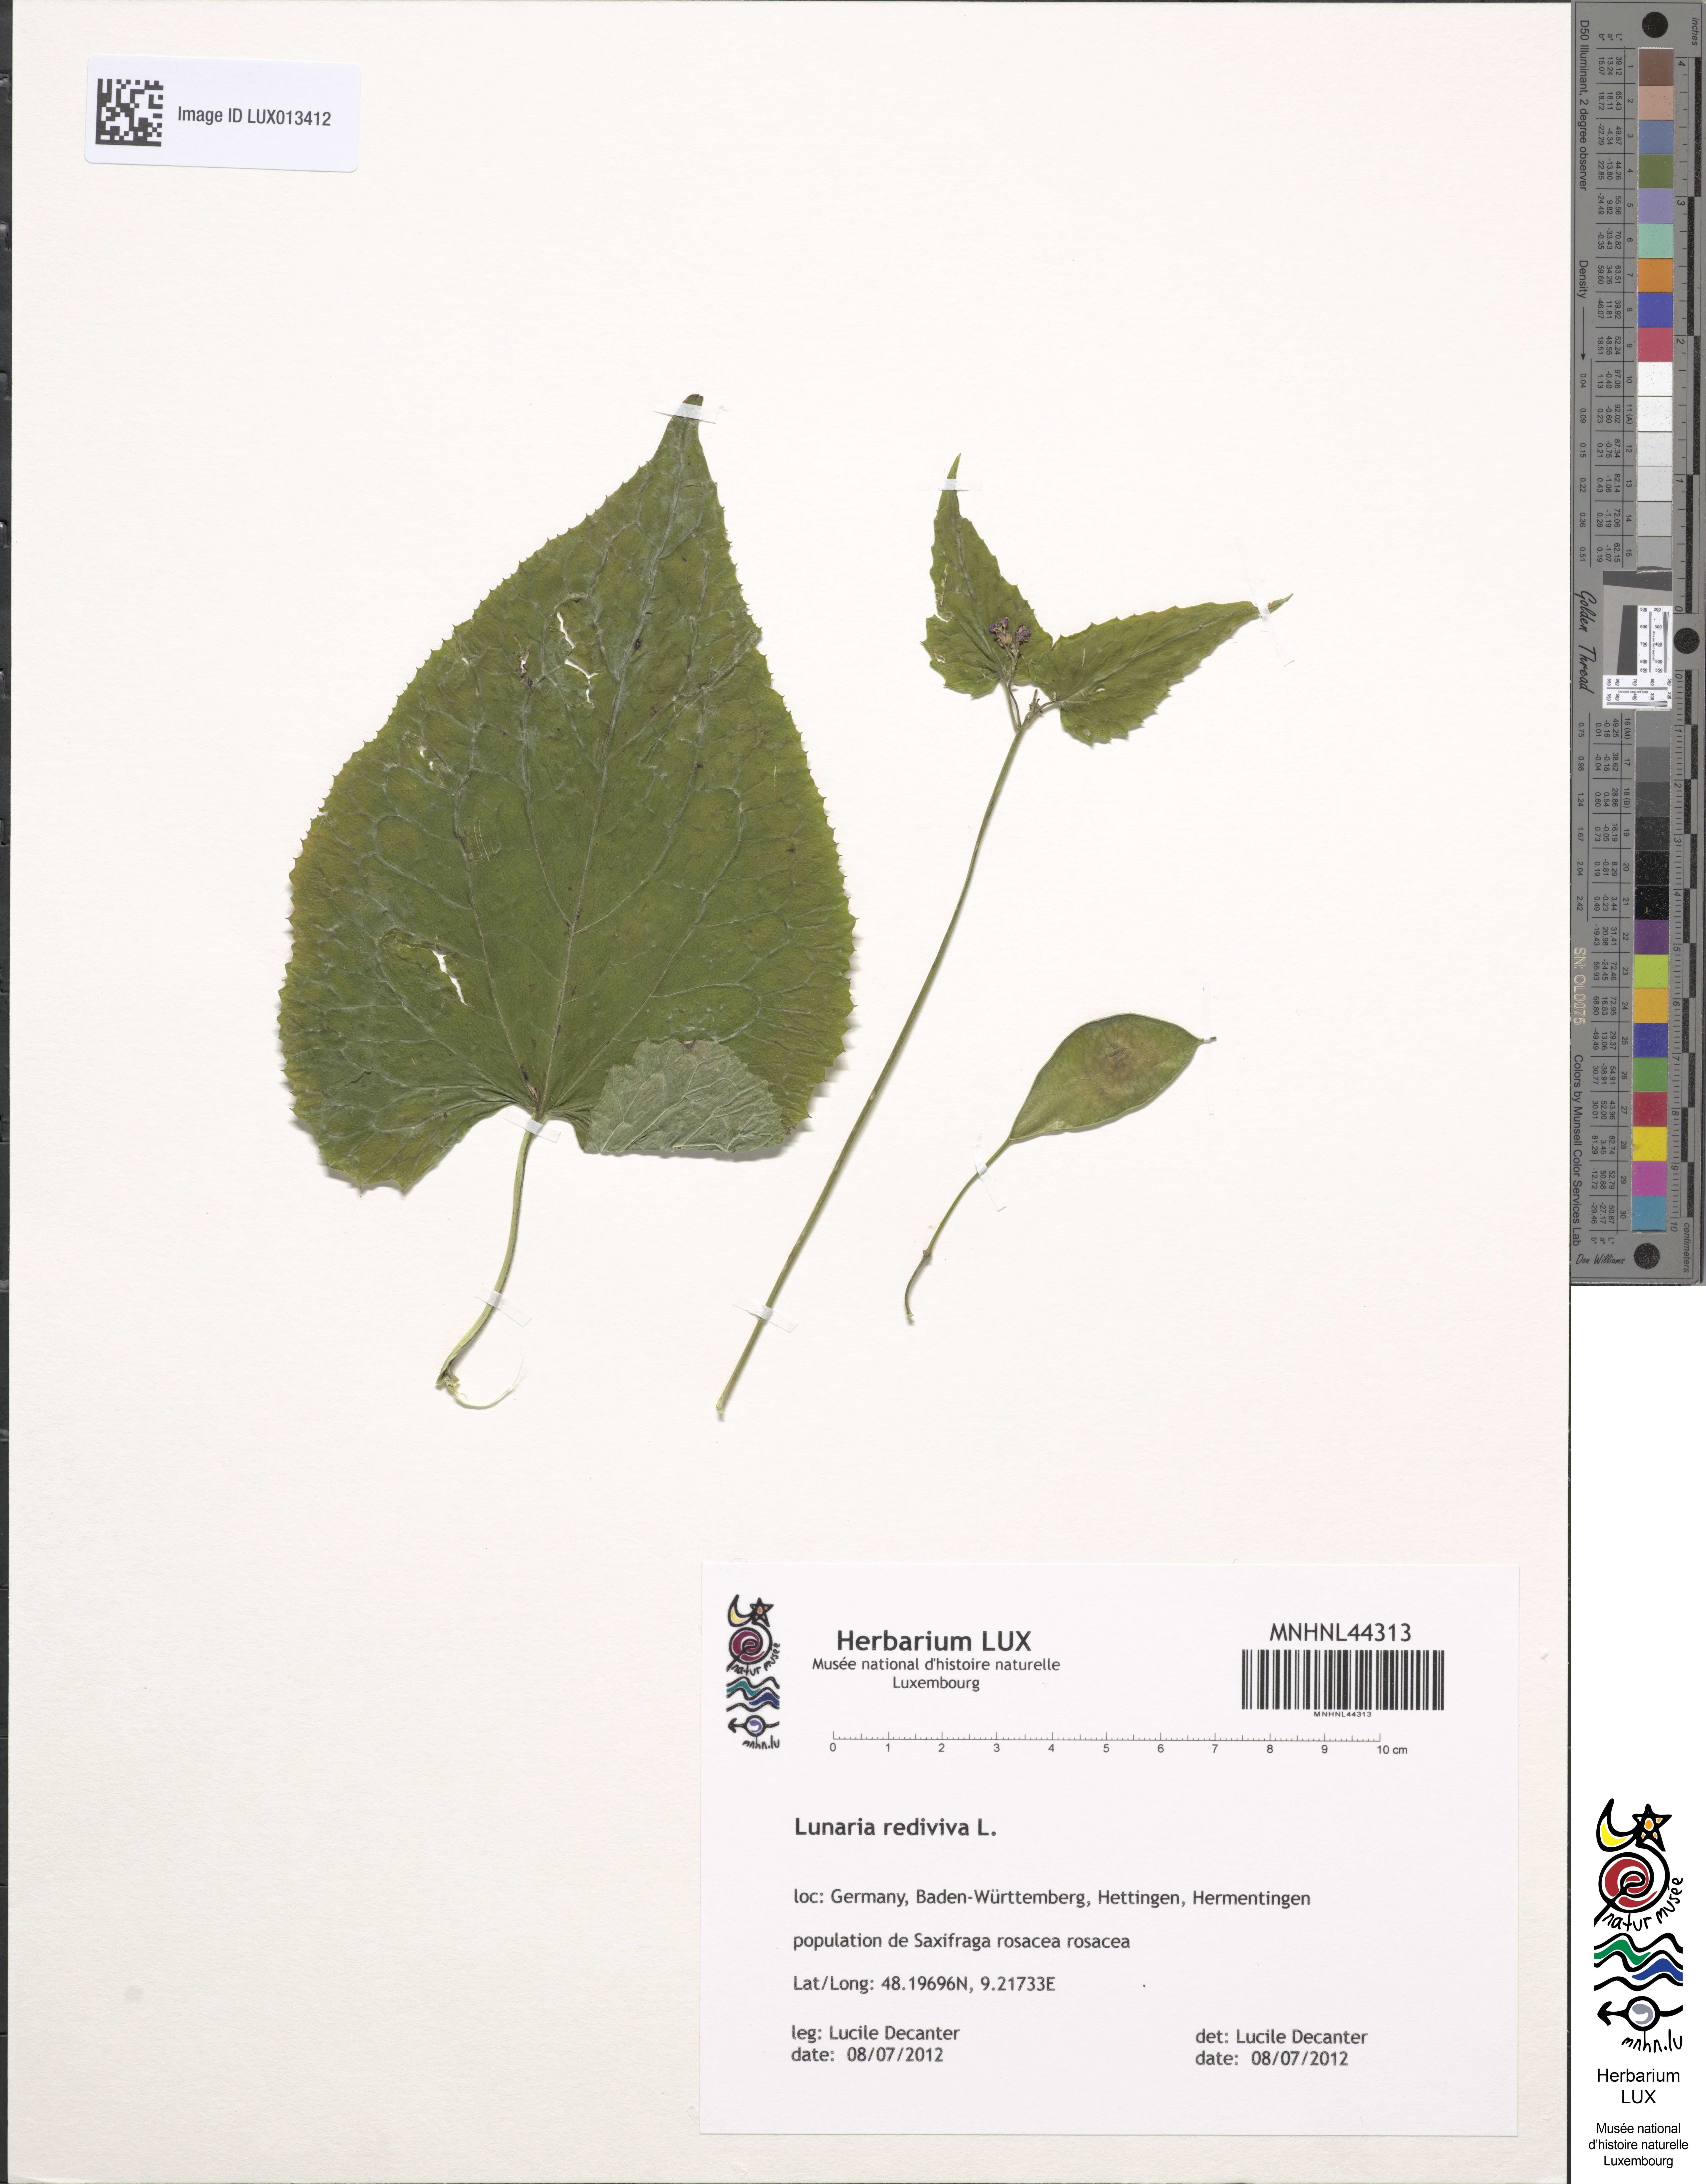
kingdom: Plantae
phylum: Tracheophyta
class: Magnoliopsida
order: Brassicales
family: Brassicaceae
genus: Lunaria
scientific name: Lunaria rediviva
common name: Perennial honesty
